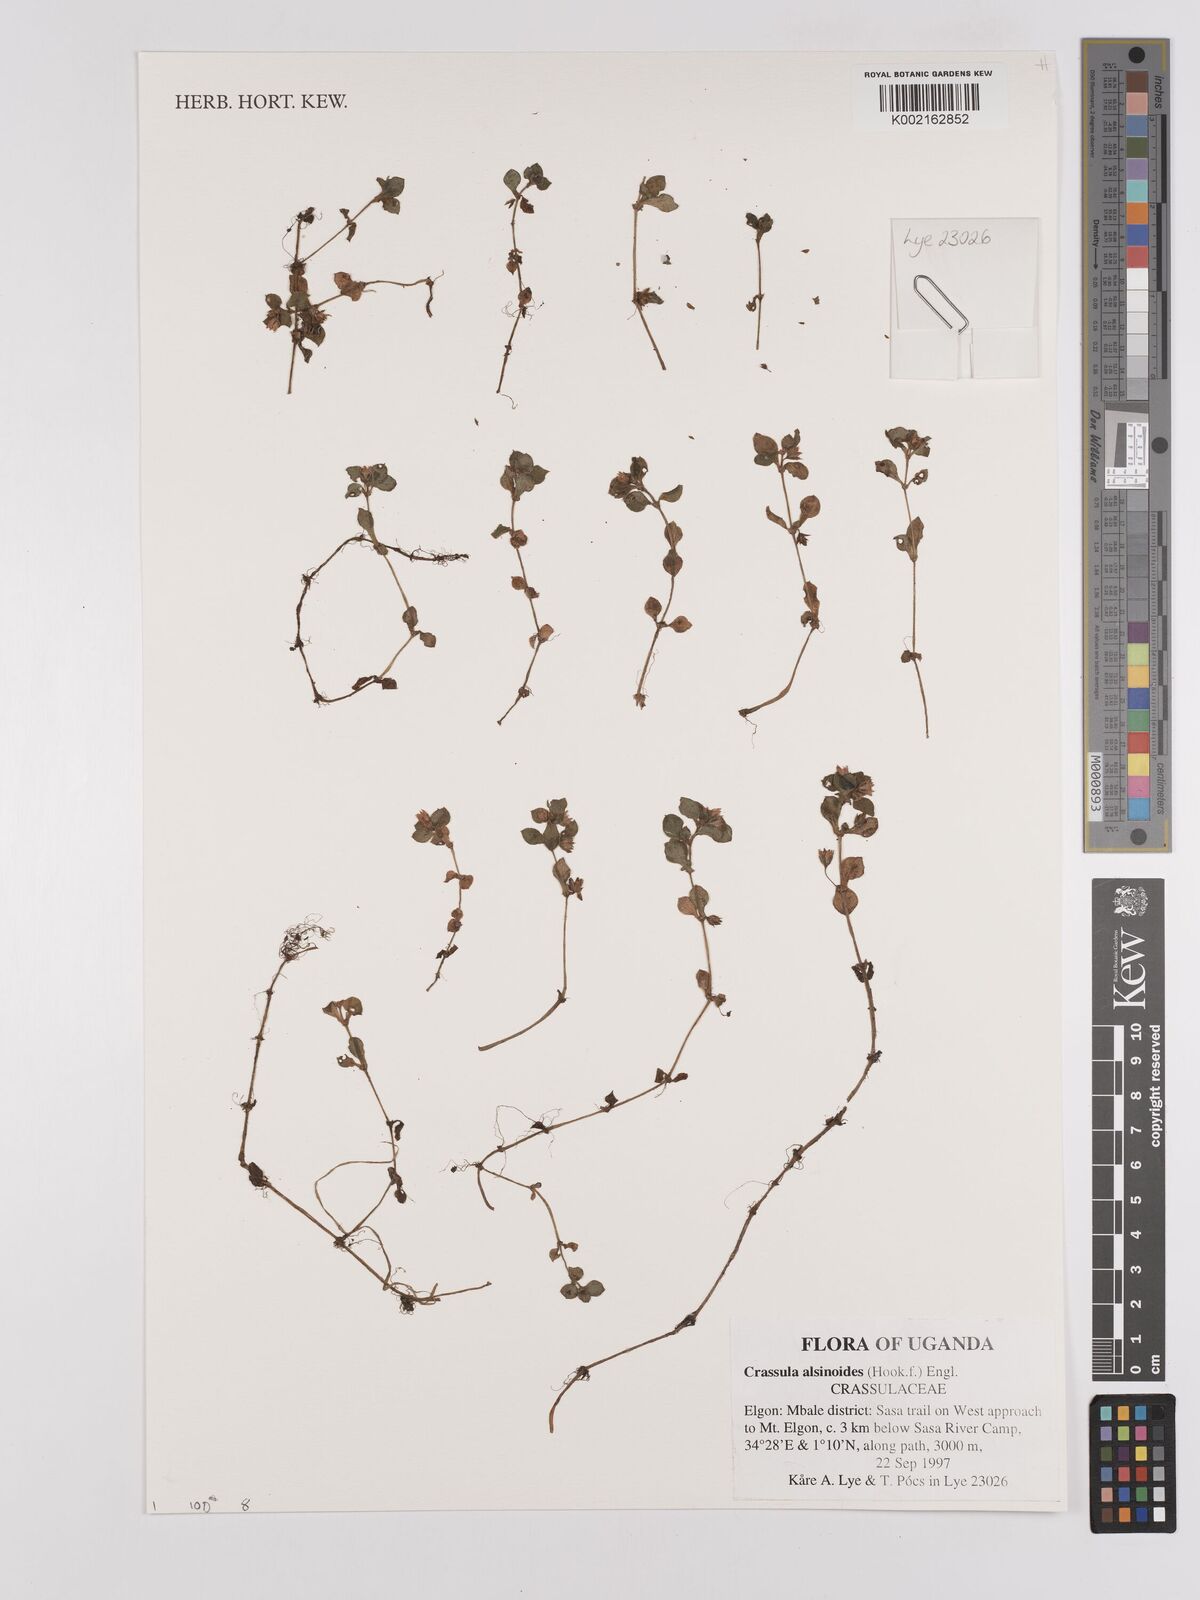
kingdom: Plantae
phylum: Tracheophyta
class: Magnoliopsida
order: Saxifragales
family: Crassulaceae
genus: Crassula
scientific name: Crassula alsinoides
